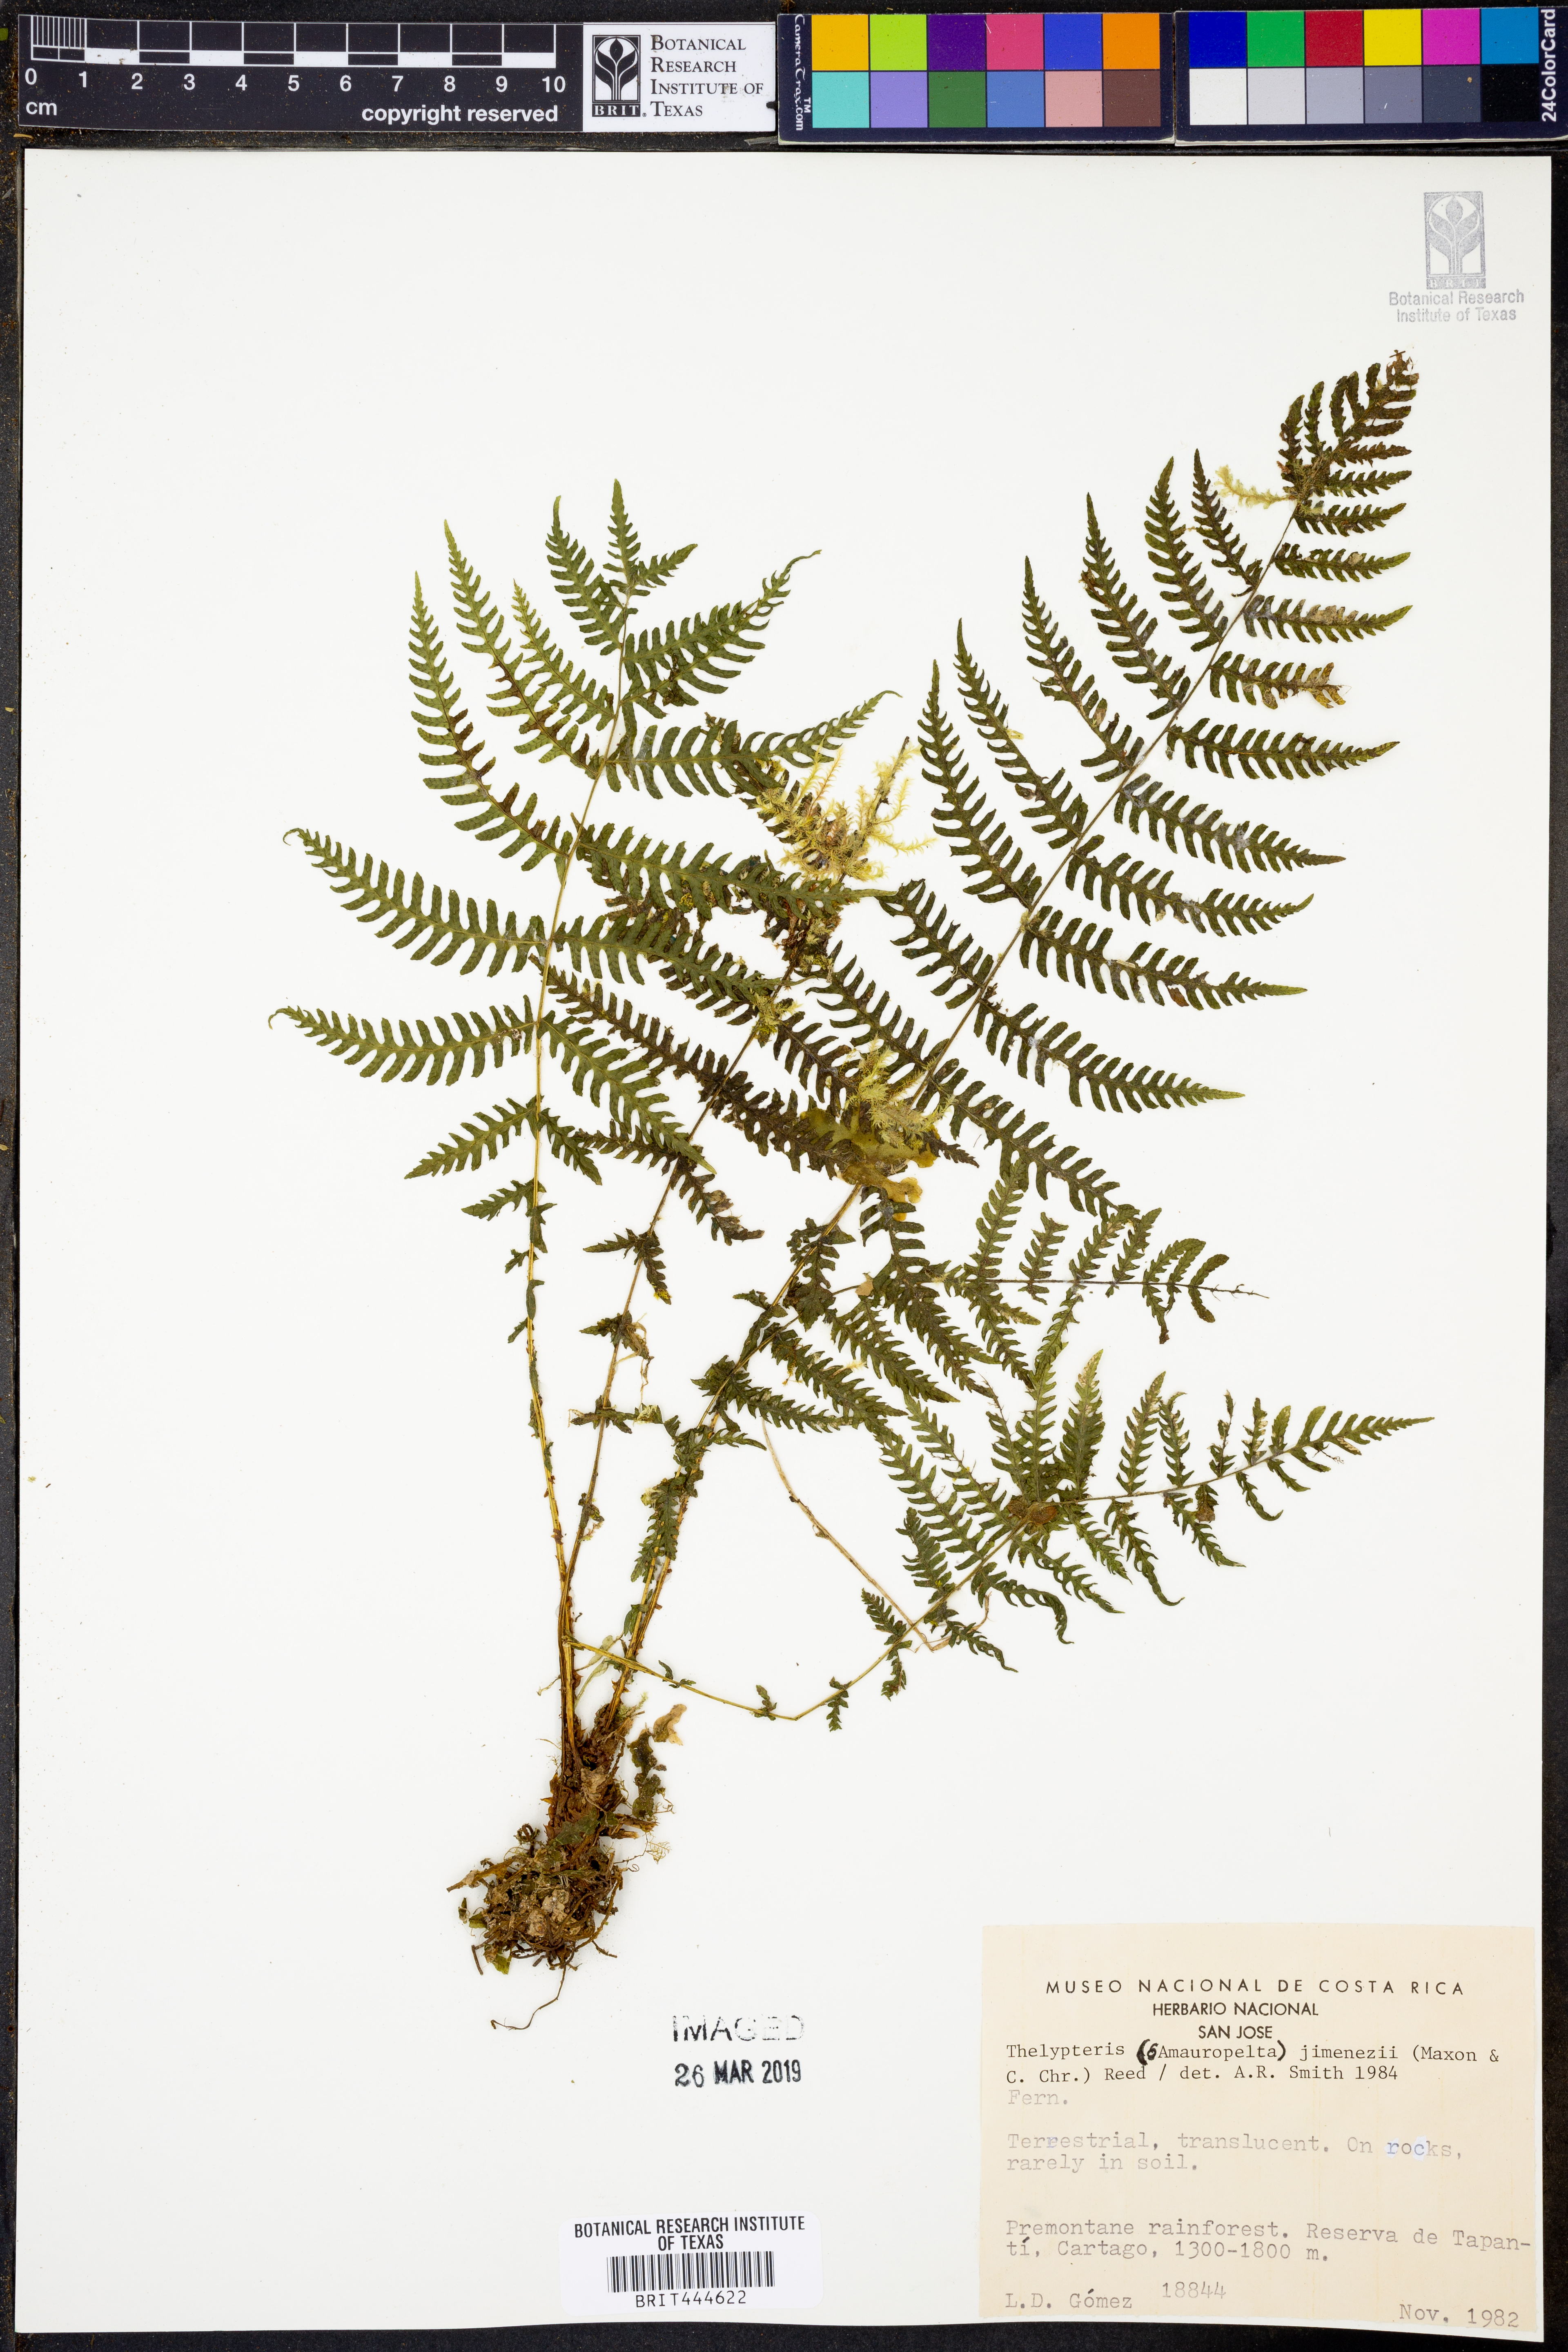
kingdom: Plantae
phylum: Tracheophyta
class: Polypodiopsida
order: Polypodiales
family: Thelypteridaceae
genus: Amauropelta
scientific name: Amauropelta jimenezii
